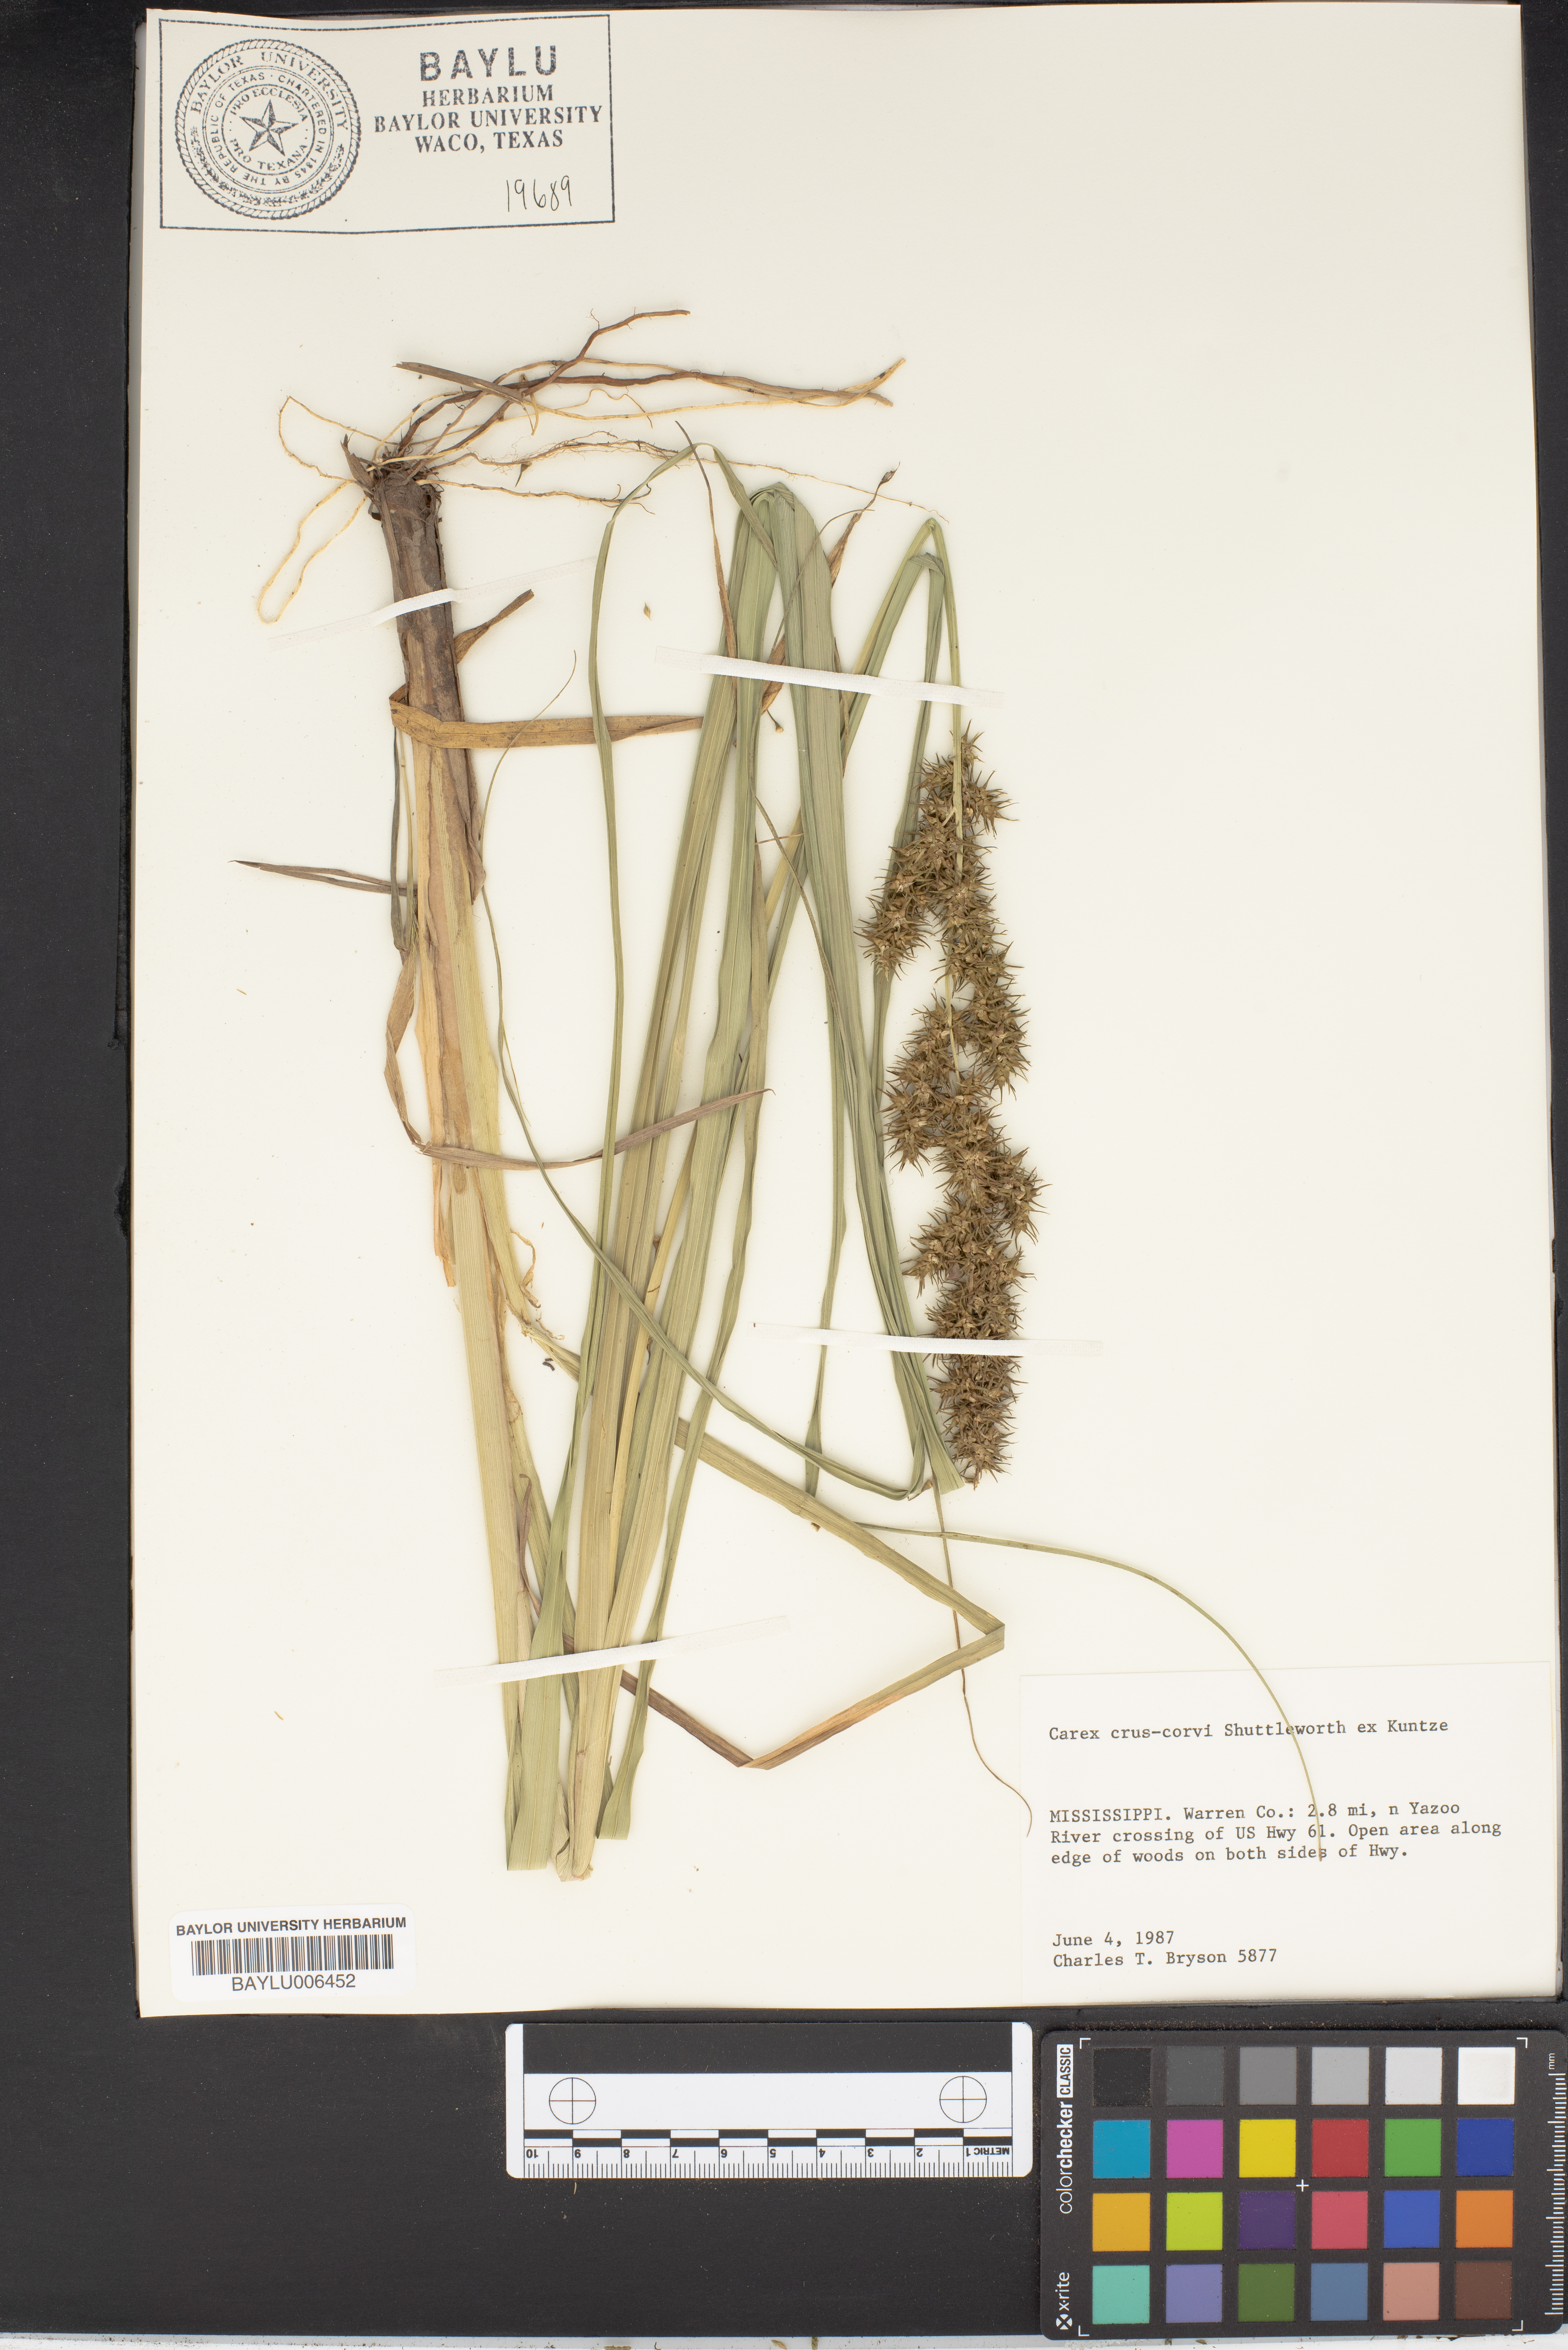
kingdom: Plantae
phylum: Tracheophyta
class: Liliopsida
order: Poales
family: Cyperaceae
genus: Carex
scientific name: Carex crus-corvi
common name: Crow-spur sedge
